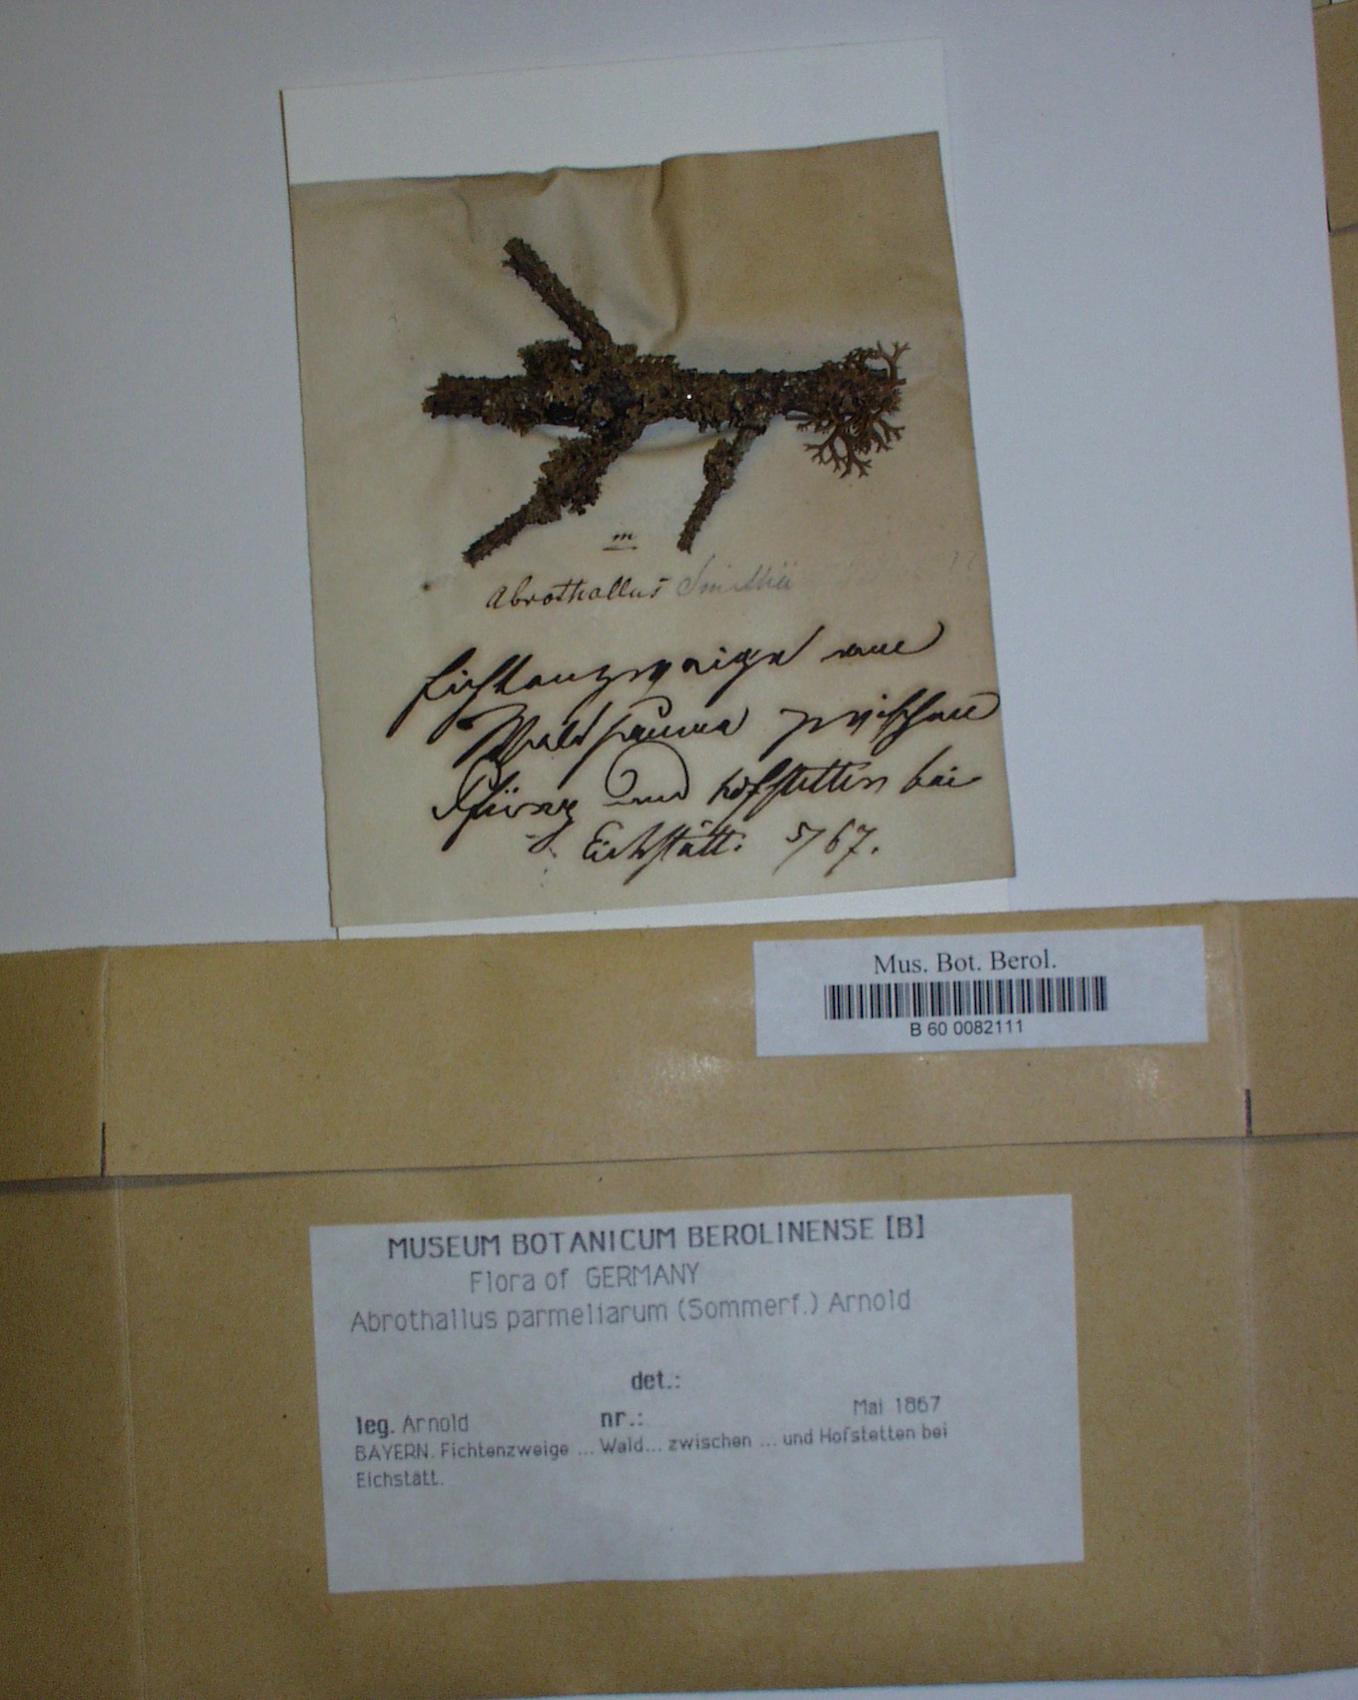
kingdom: Fungi
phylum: Ascomycota
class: Dothideomycetes
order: Abrothallales
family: Abrothallaceae
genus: Abrothallus
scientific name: Abrothallus parmeliarum
